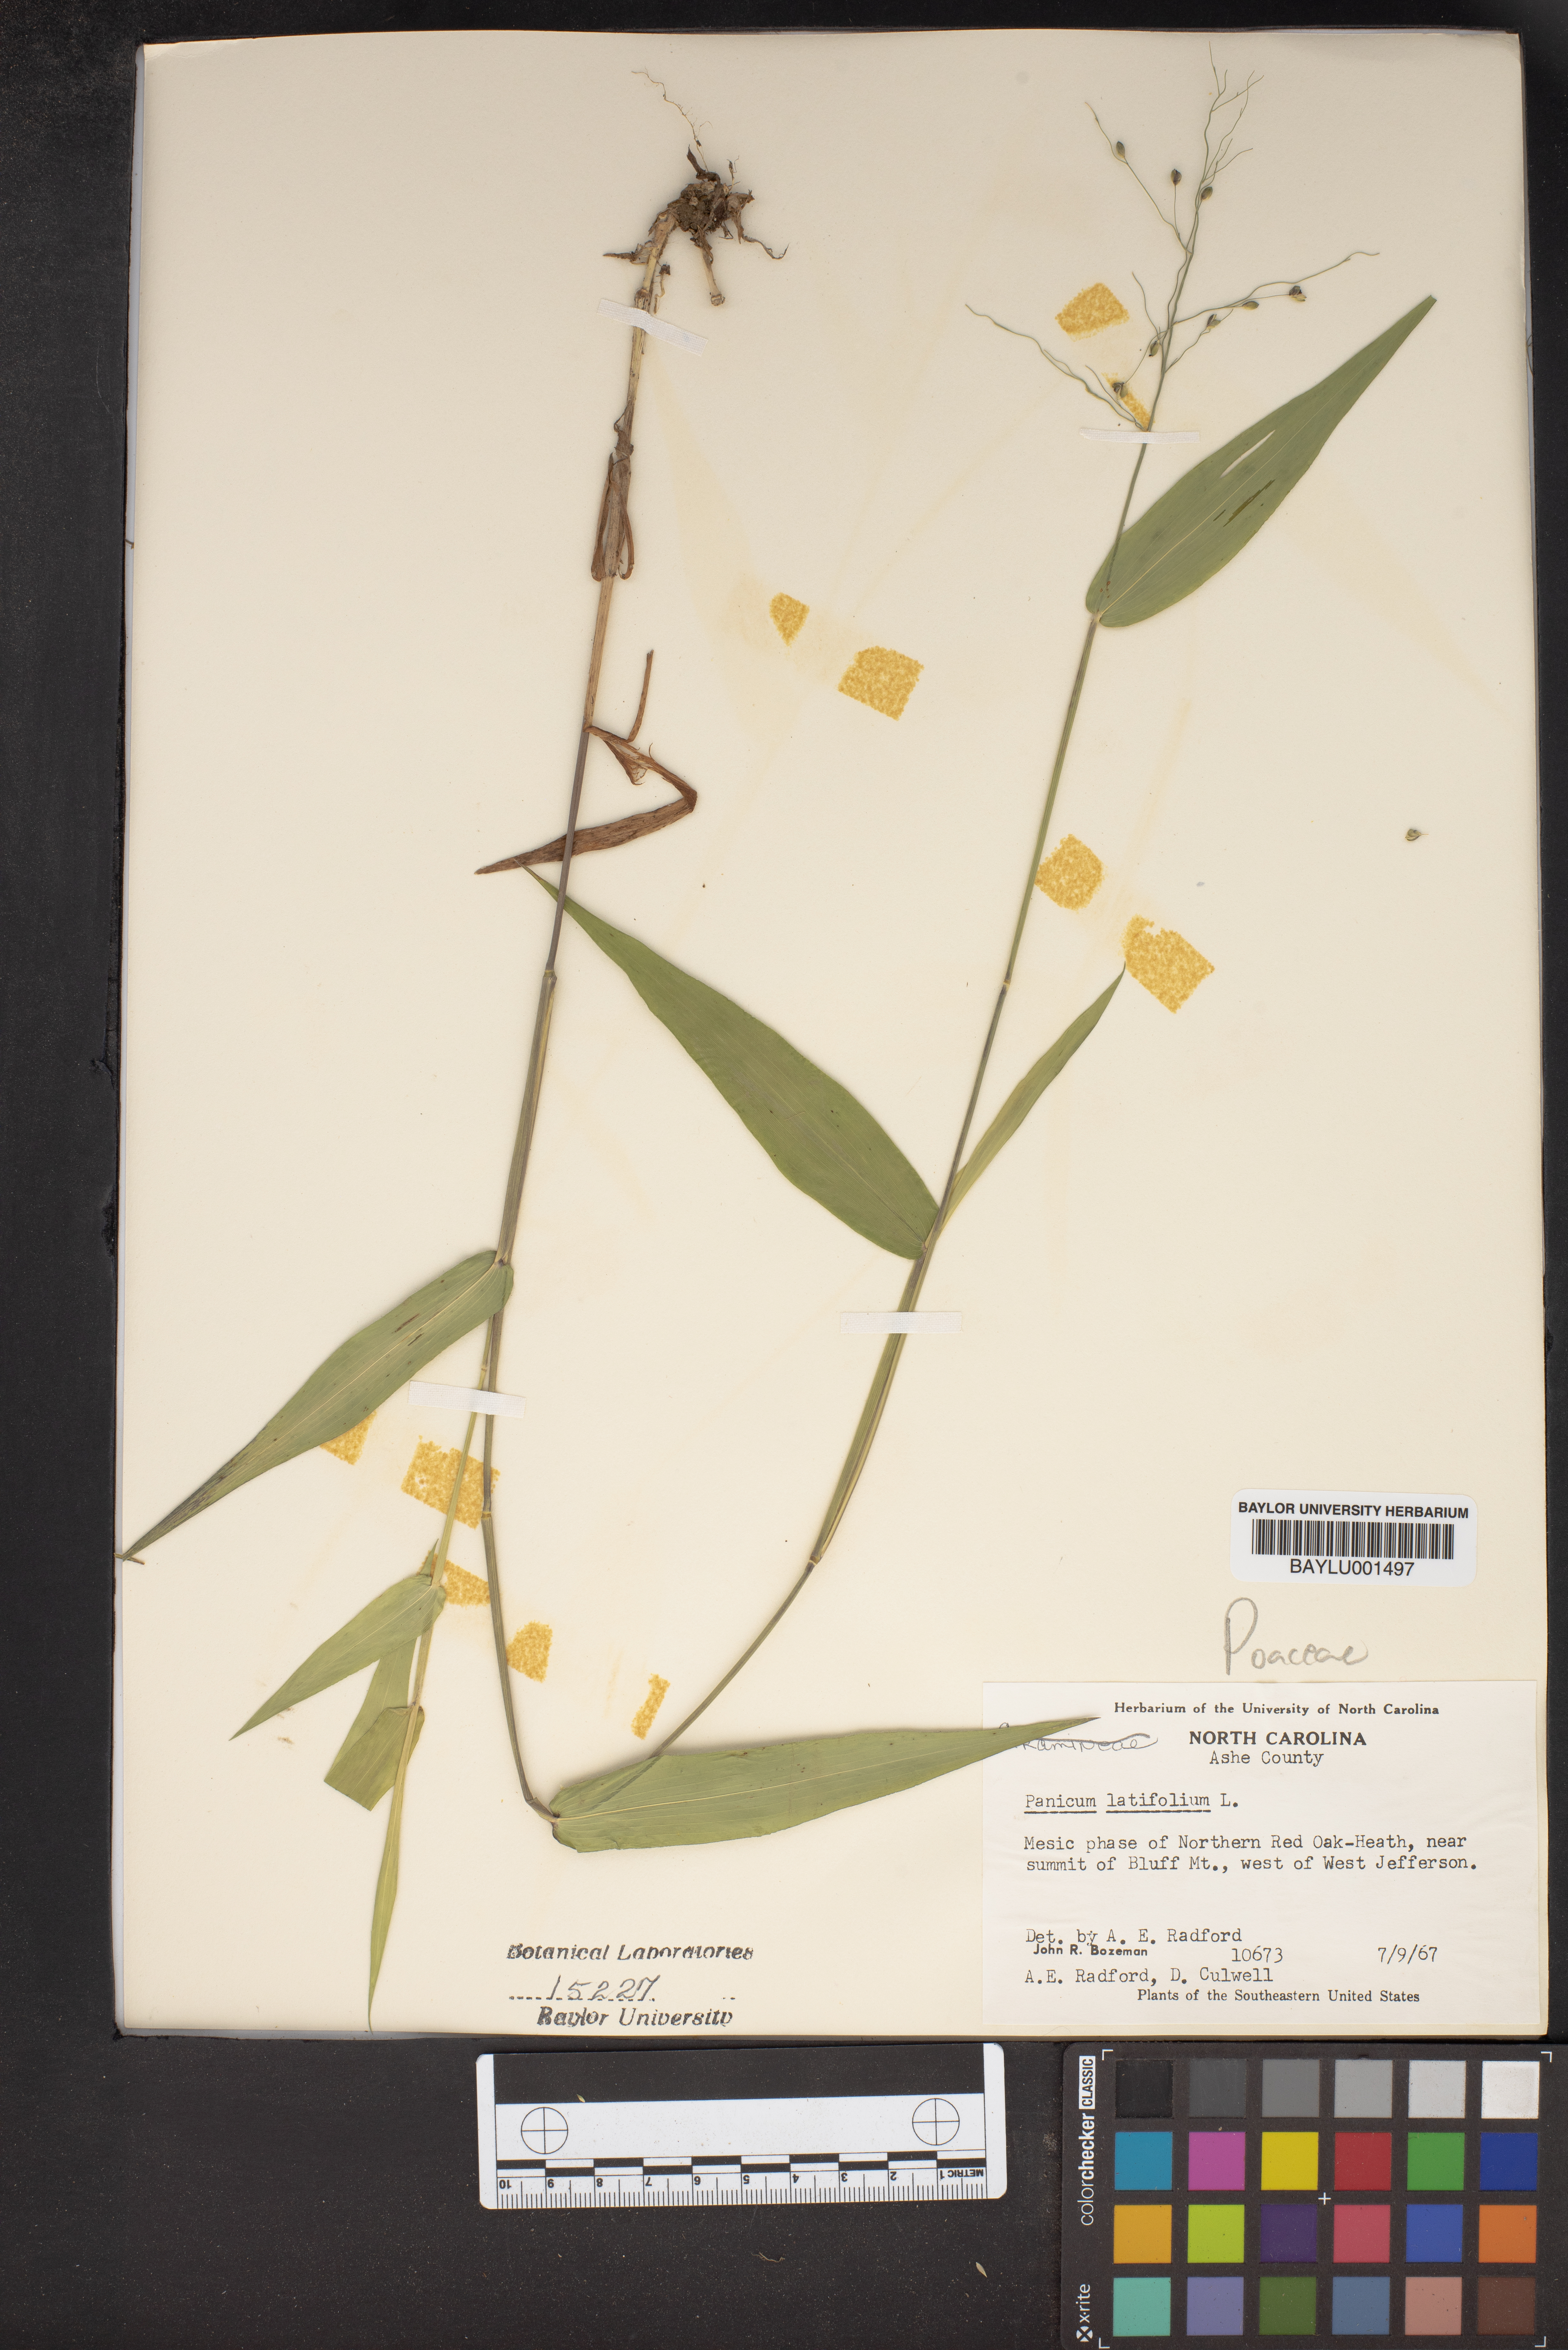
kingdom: Plantae
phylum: Tracheophyta
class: Liliopsida
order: Poales
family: Poaceae
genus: Dichanthelium
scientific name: Dichanthelium latifolium
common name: Broad-leaved panicgrass
